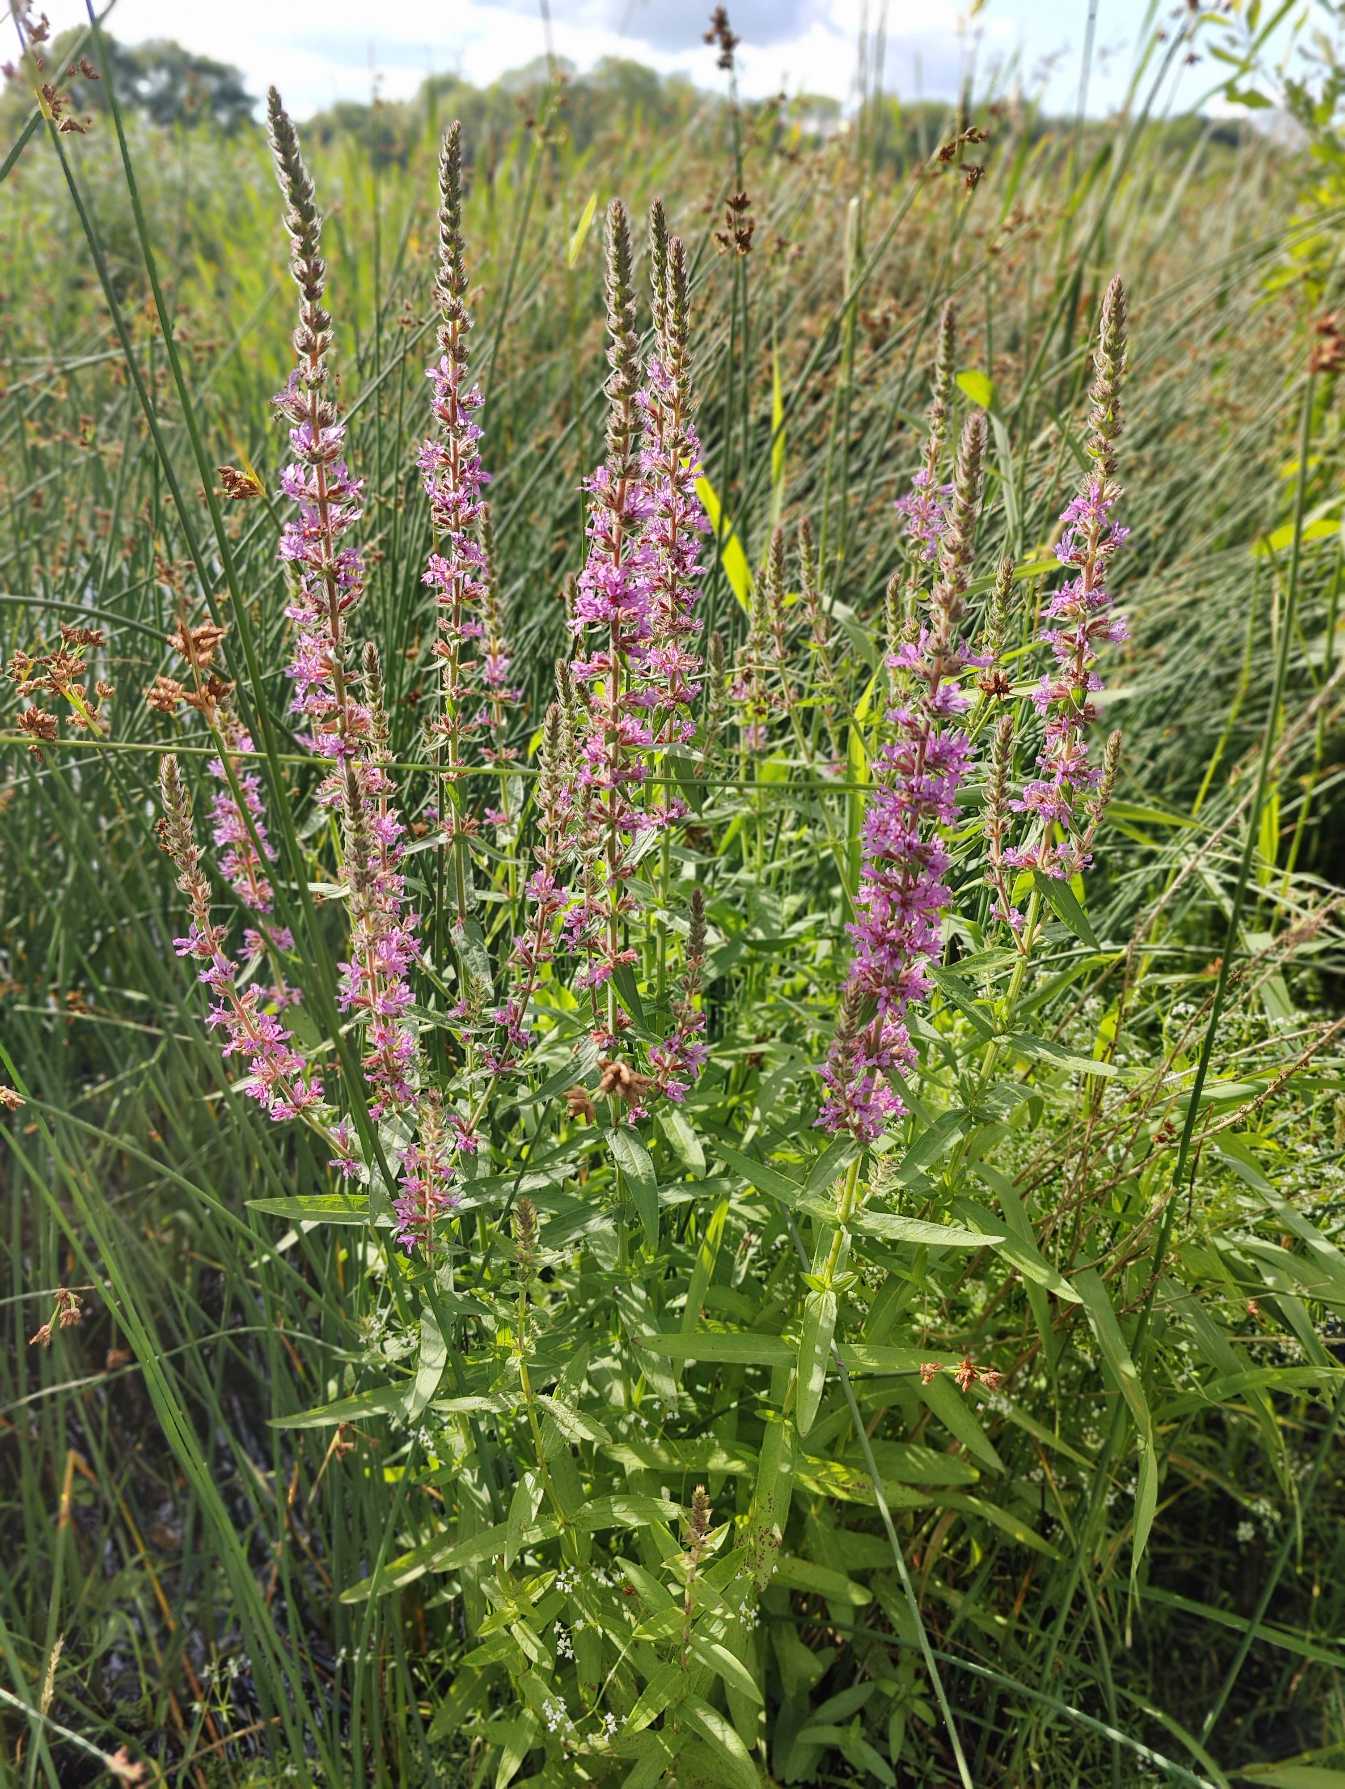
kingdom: Plantae
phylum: Tracheophyta
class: Magnoliopsida
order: Myrtales
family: Lythraceae
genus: Lythrum
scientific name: Lythrum salicaria
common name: Kattehale
